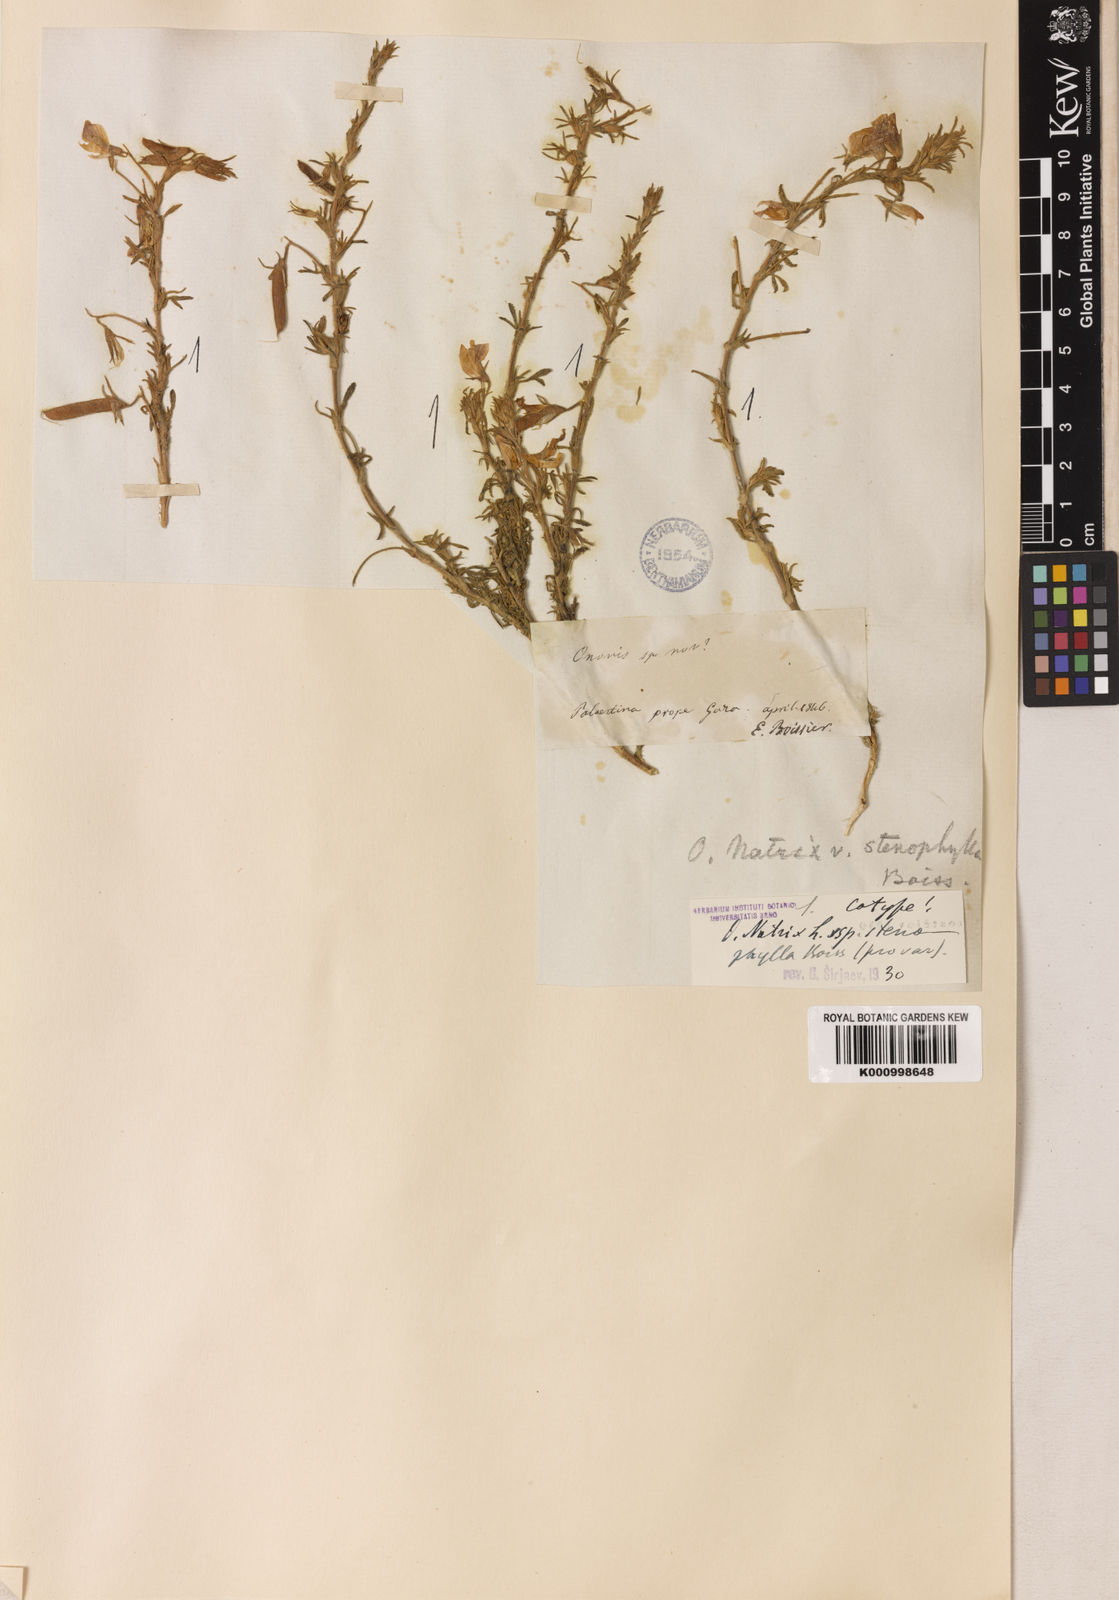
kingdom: Plantae
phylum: Tracheophyta
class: Magnoliopsida
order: Fabales
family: Fabaceae
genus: Ononis
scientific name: Ononis natrix
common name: Yellow restharrow
